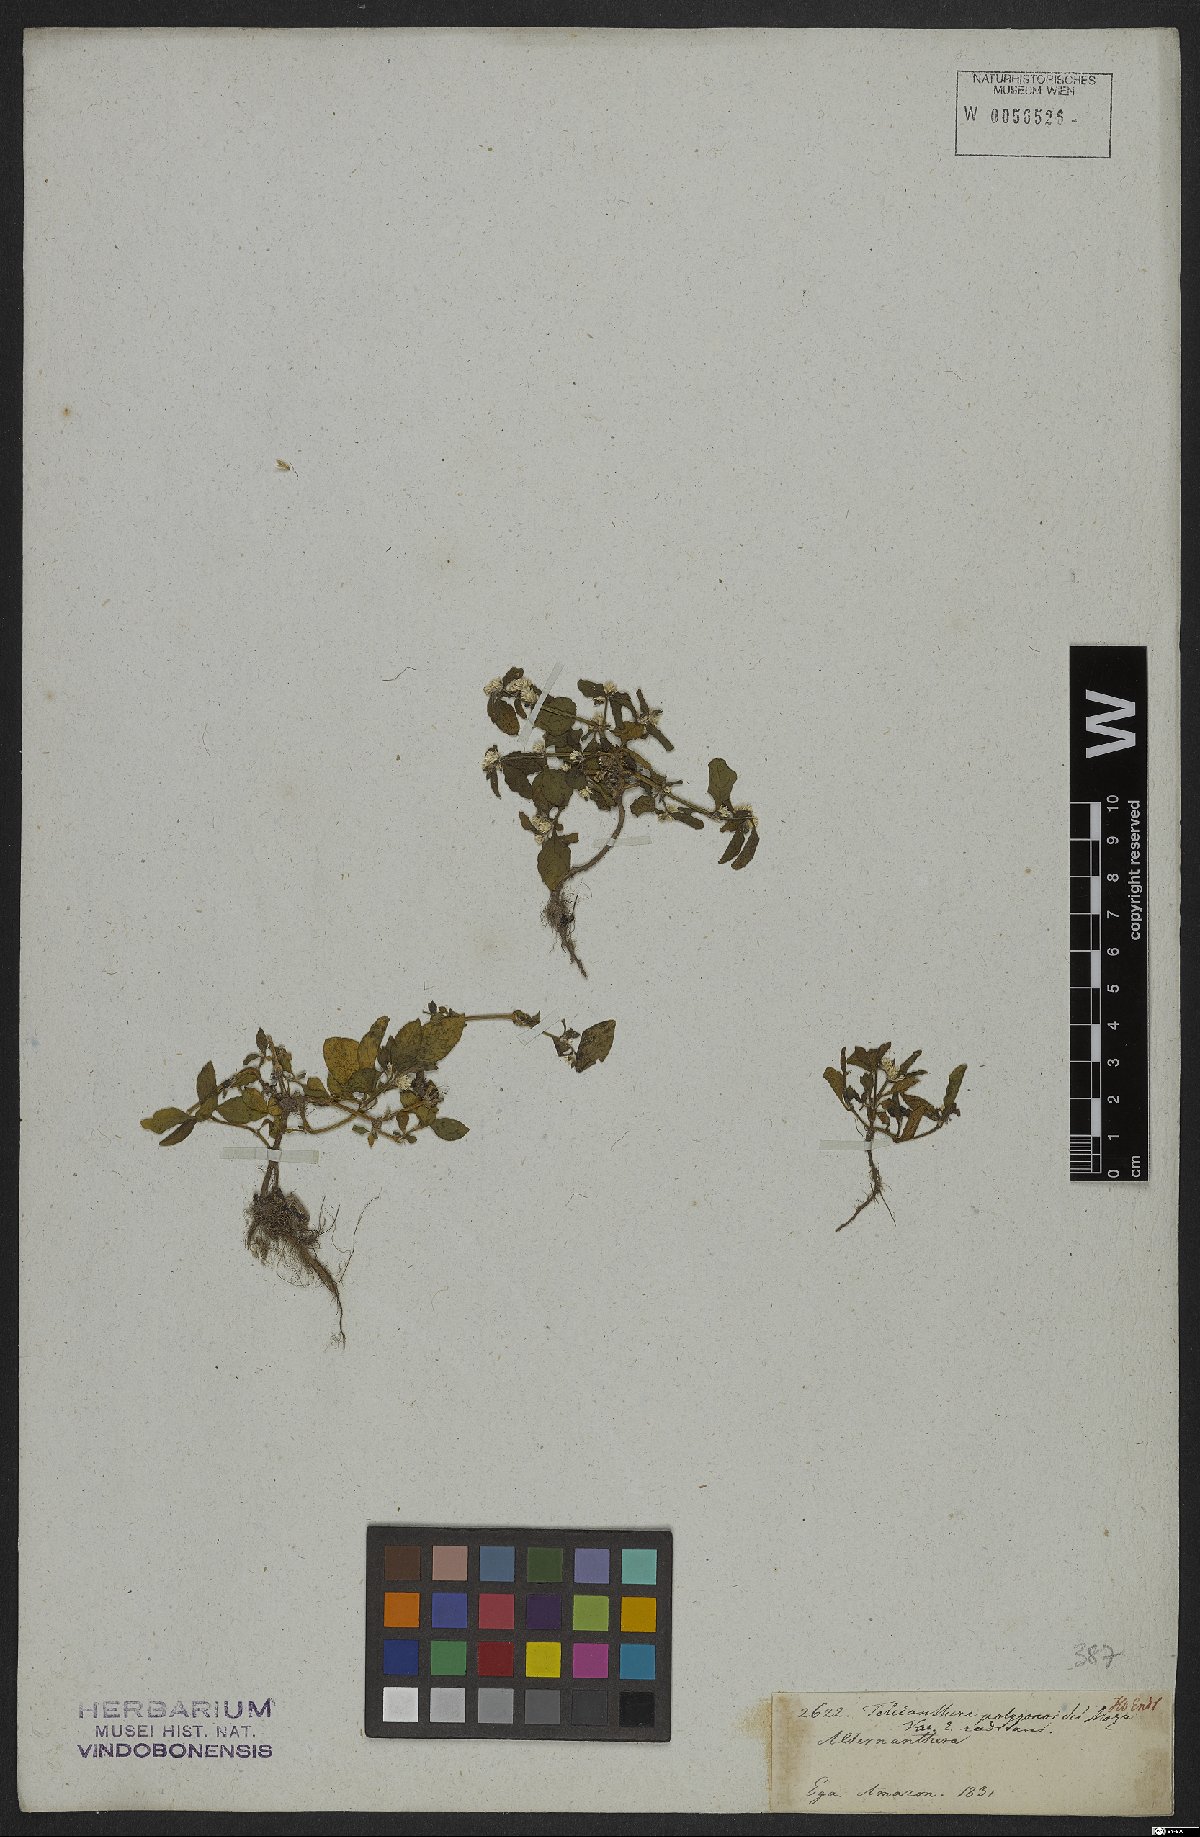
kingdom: Plantae
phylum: Tracheophyta
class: Magnoliopsida
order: Caryophyllales
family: Amaranthaceae
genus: Alternanthera
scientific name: Alternanthera sessilis
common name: Sessile joyweed
